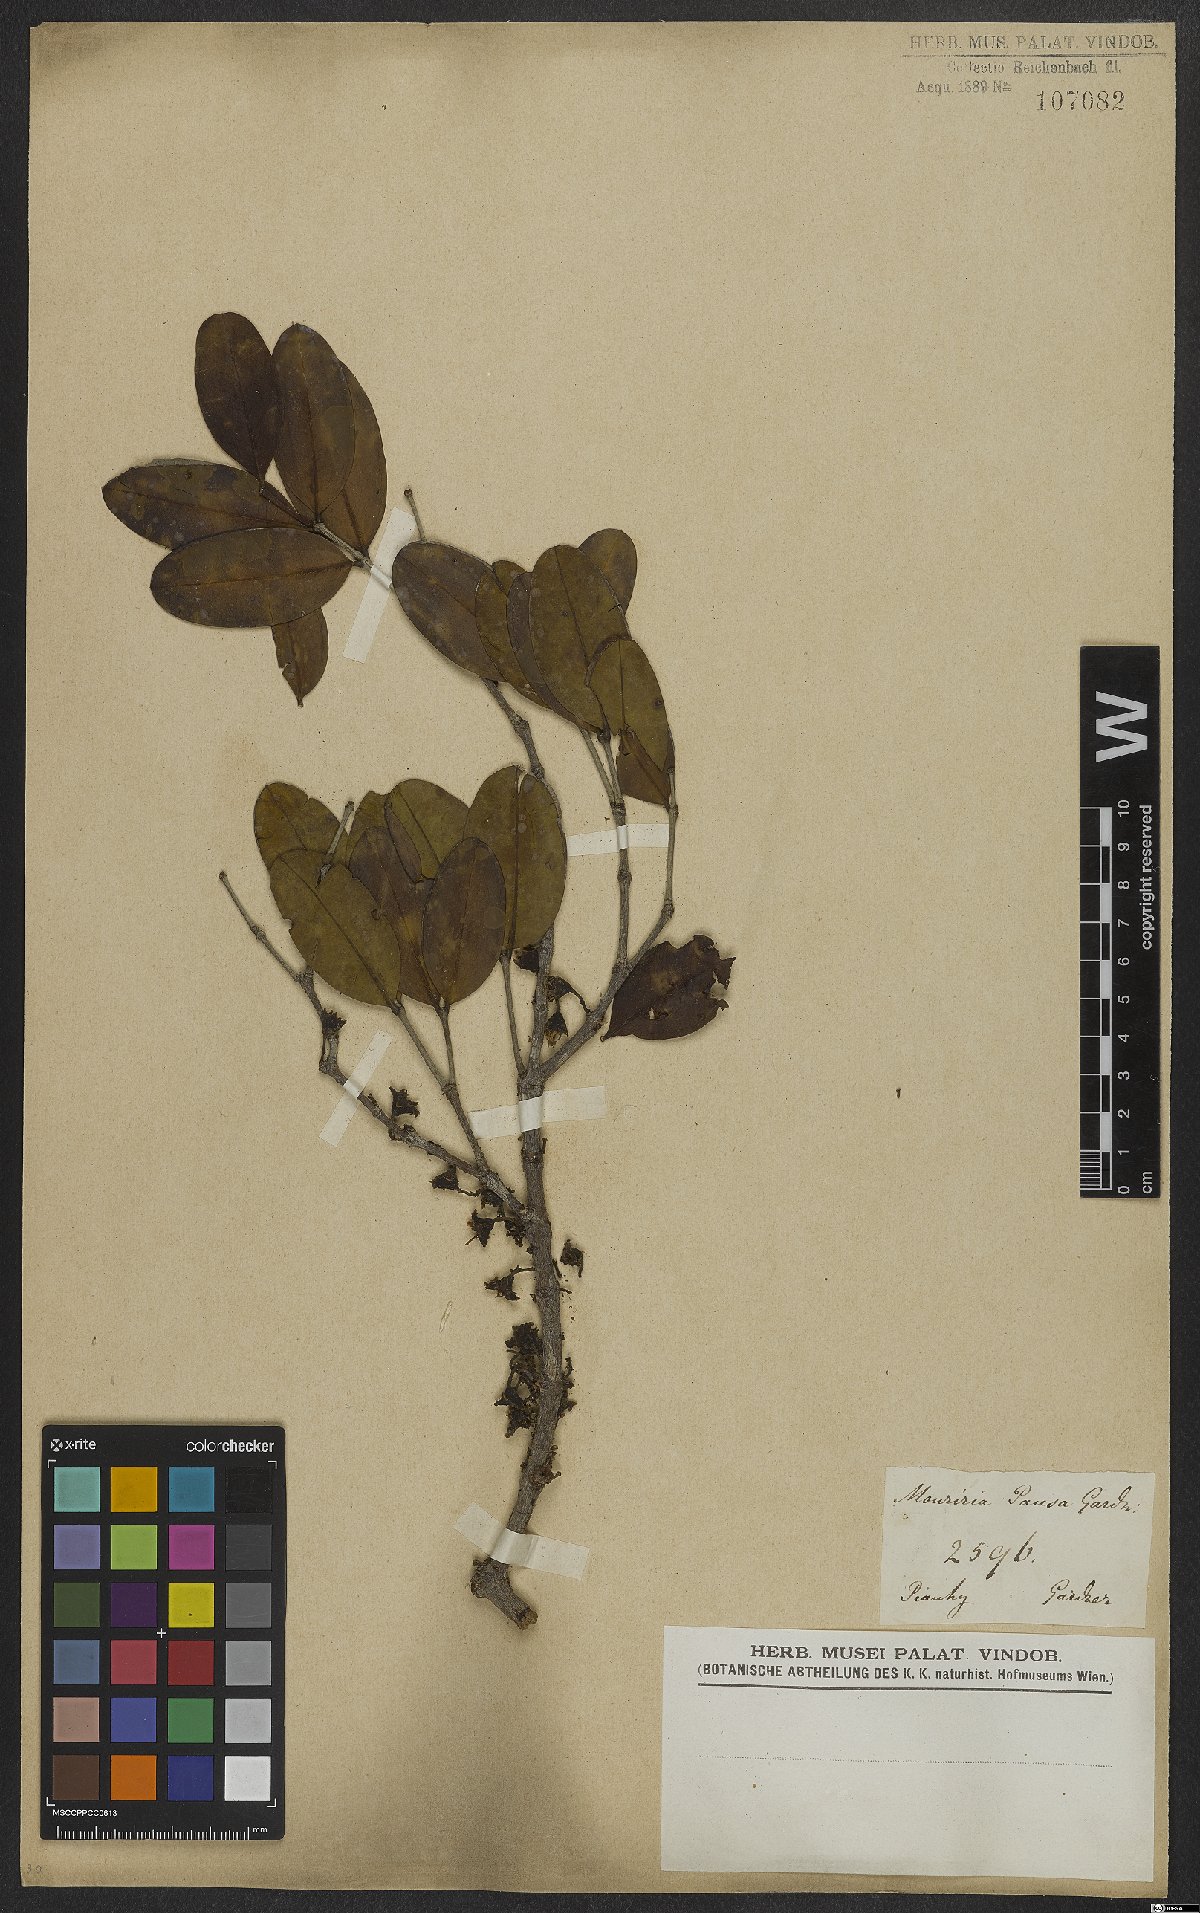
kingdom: Plantae
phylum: Tracheophyta
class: Magnoliopsida
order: Myrtales
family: Melastomataceae
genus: Mouriri
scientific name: Mouriri pusa
